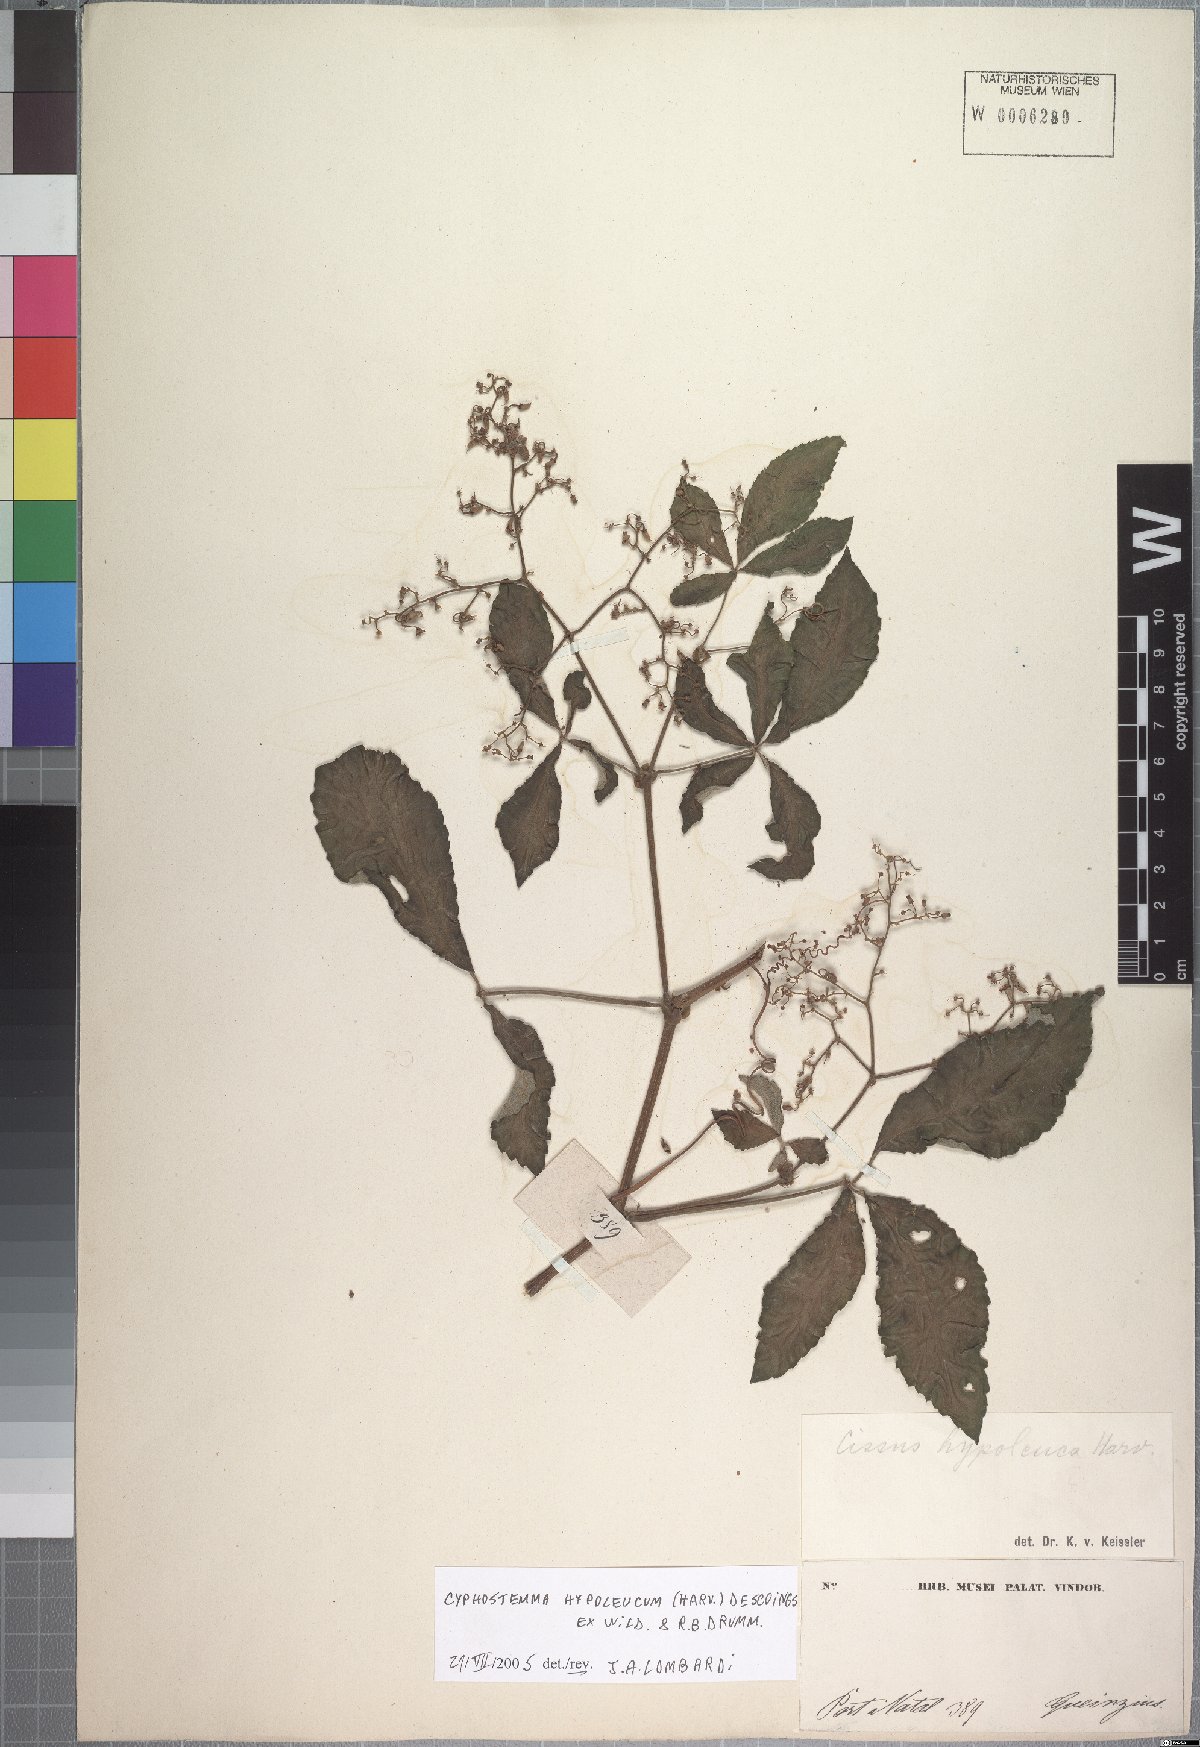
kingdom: Plantae
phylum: Tracheophyta
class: Magnoliopsida
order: Vitales
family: Vitaceae
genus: Cyphostemma
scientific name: Cyphostemma hypoleucum
